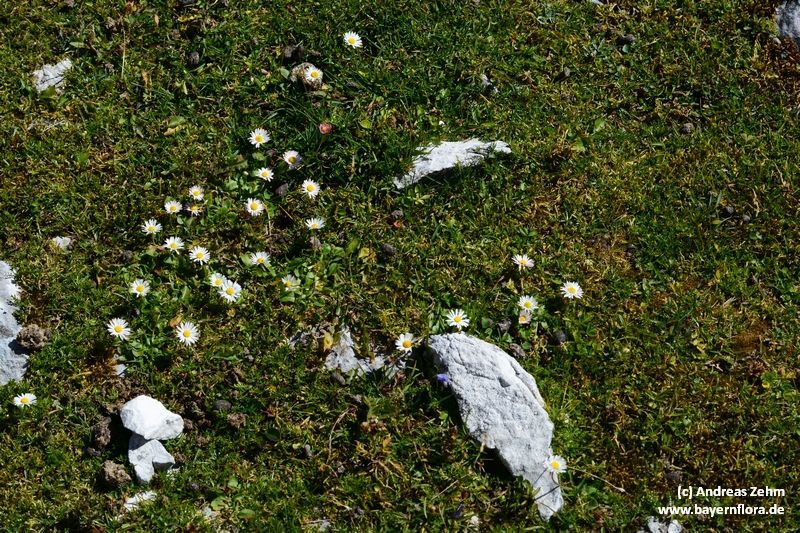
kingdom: Plantae
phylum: Tracheophyta
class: Magnoliopsida
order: Asterales
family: Asteraceae
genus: Bellis
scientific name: Bellis perennis
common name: Lawndaisy
